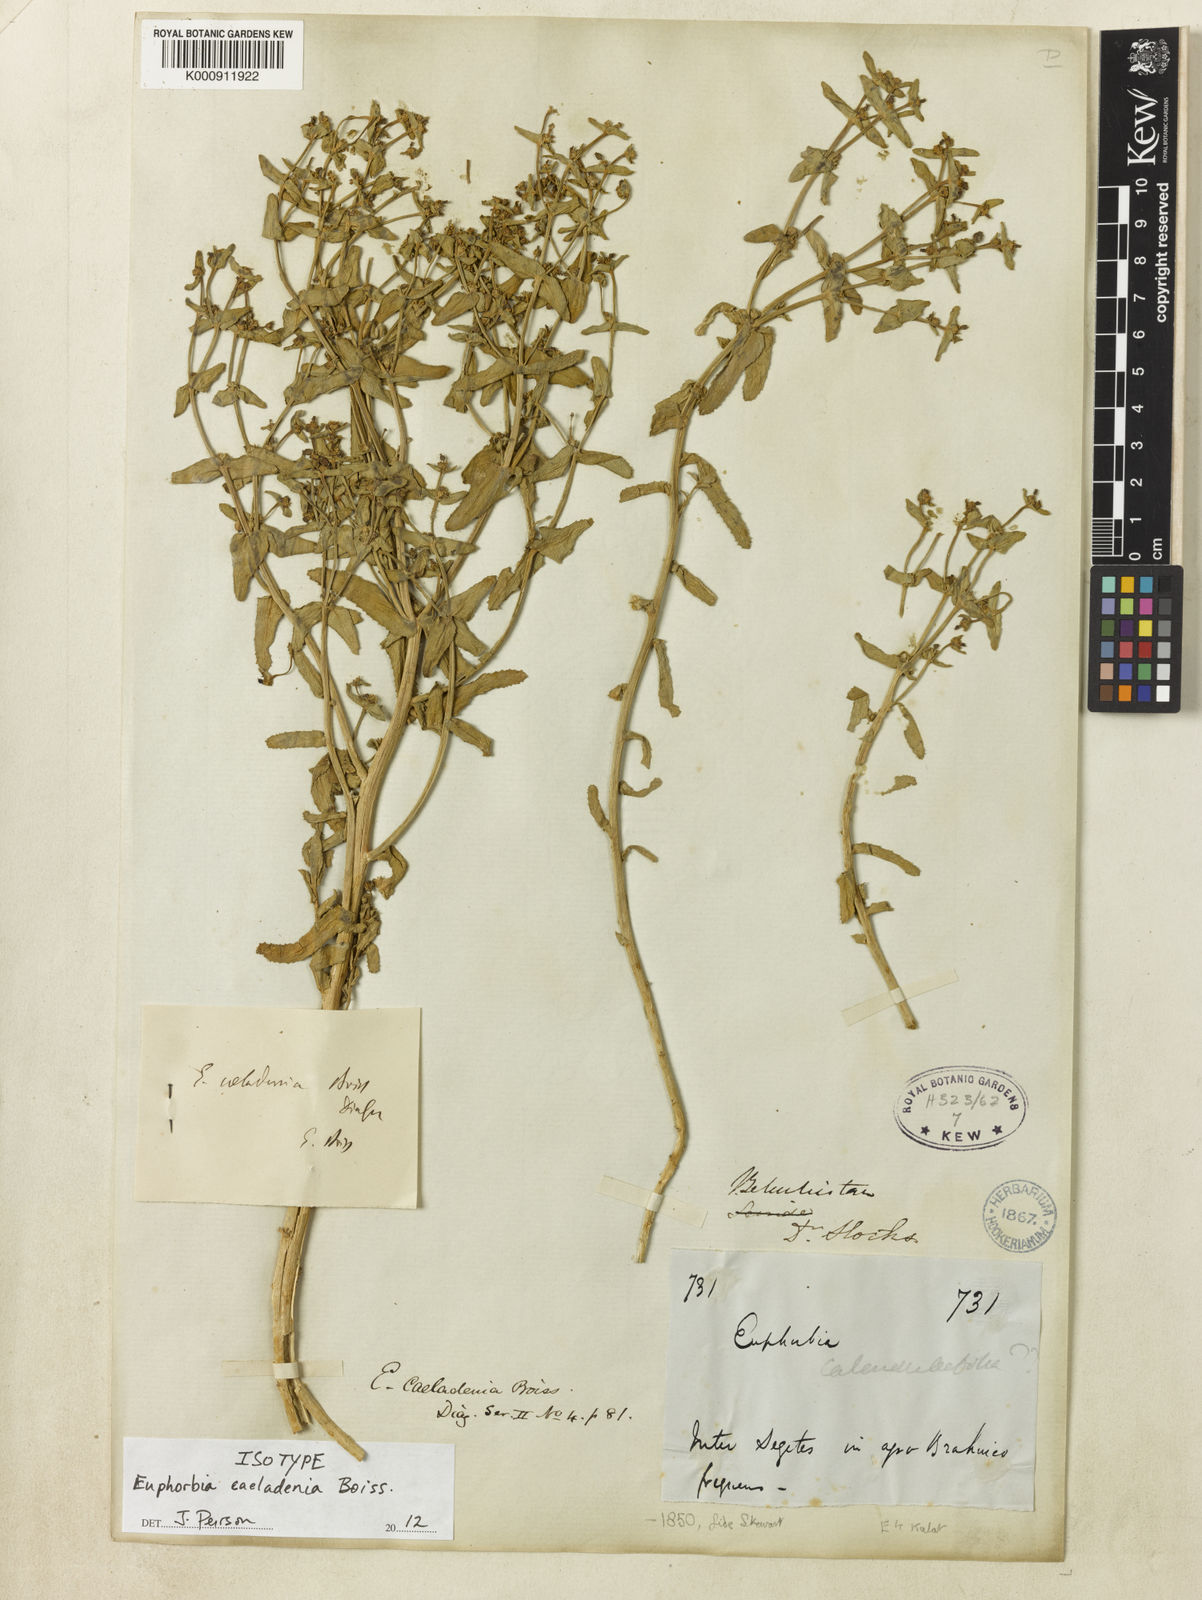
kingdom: Plantae
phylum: Tracheophyta
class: Magnoliopsida
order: Malpighiales
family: Euphorbiaceae
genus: Euphorbia
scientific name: Euphorbia caeladenia
